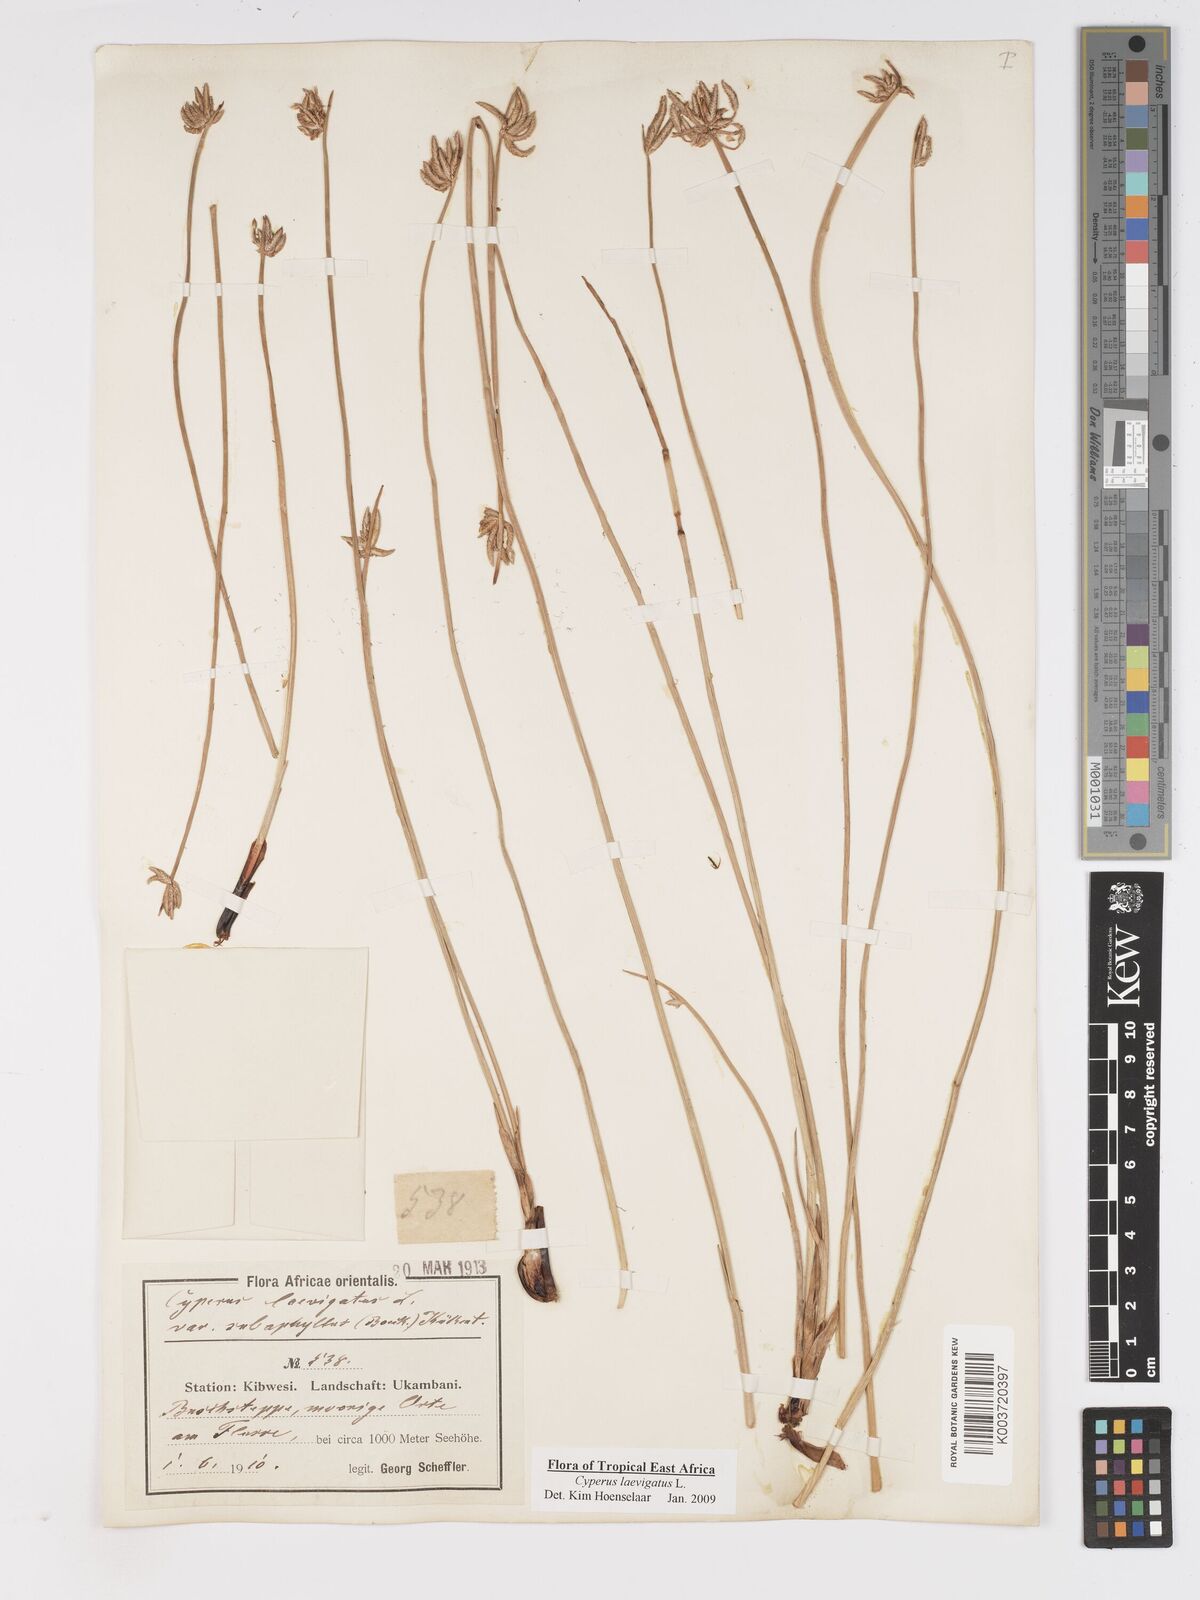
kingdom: Plantae
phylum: Tracheophyta
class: Liliopsida
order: Poales
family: Cyperaceae
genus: Cyperus
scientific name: Cyperus laevigatus
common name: Smooth flat sedge
